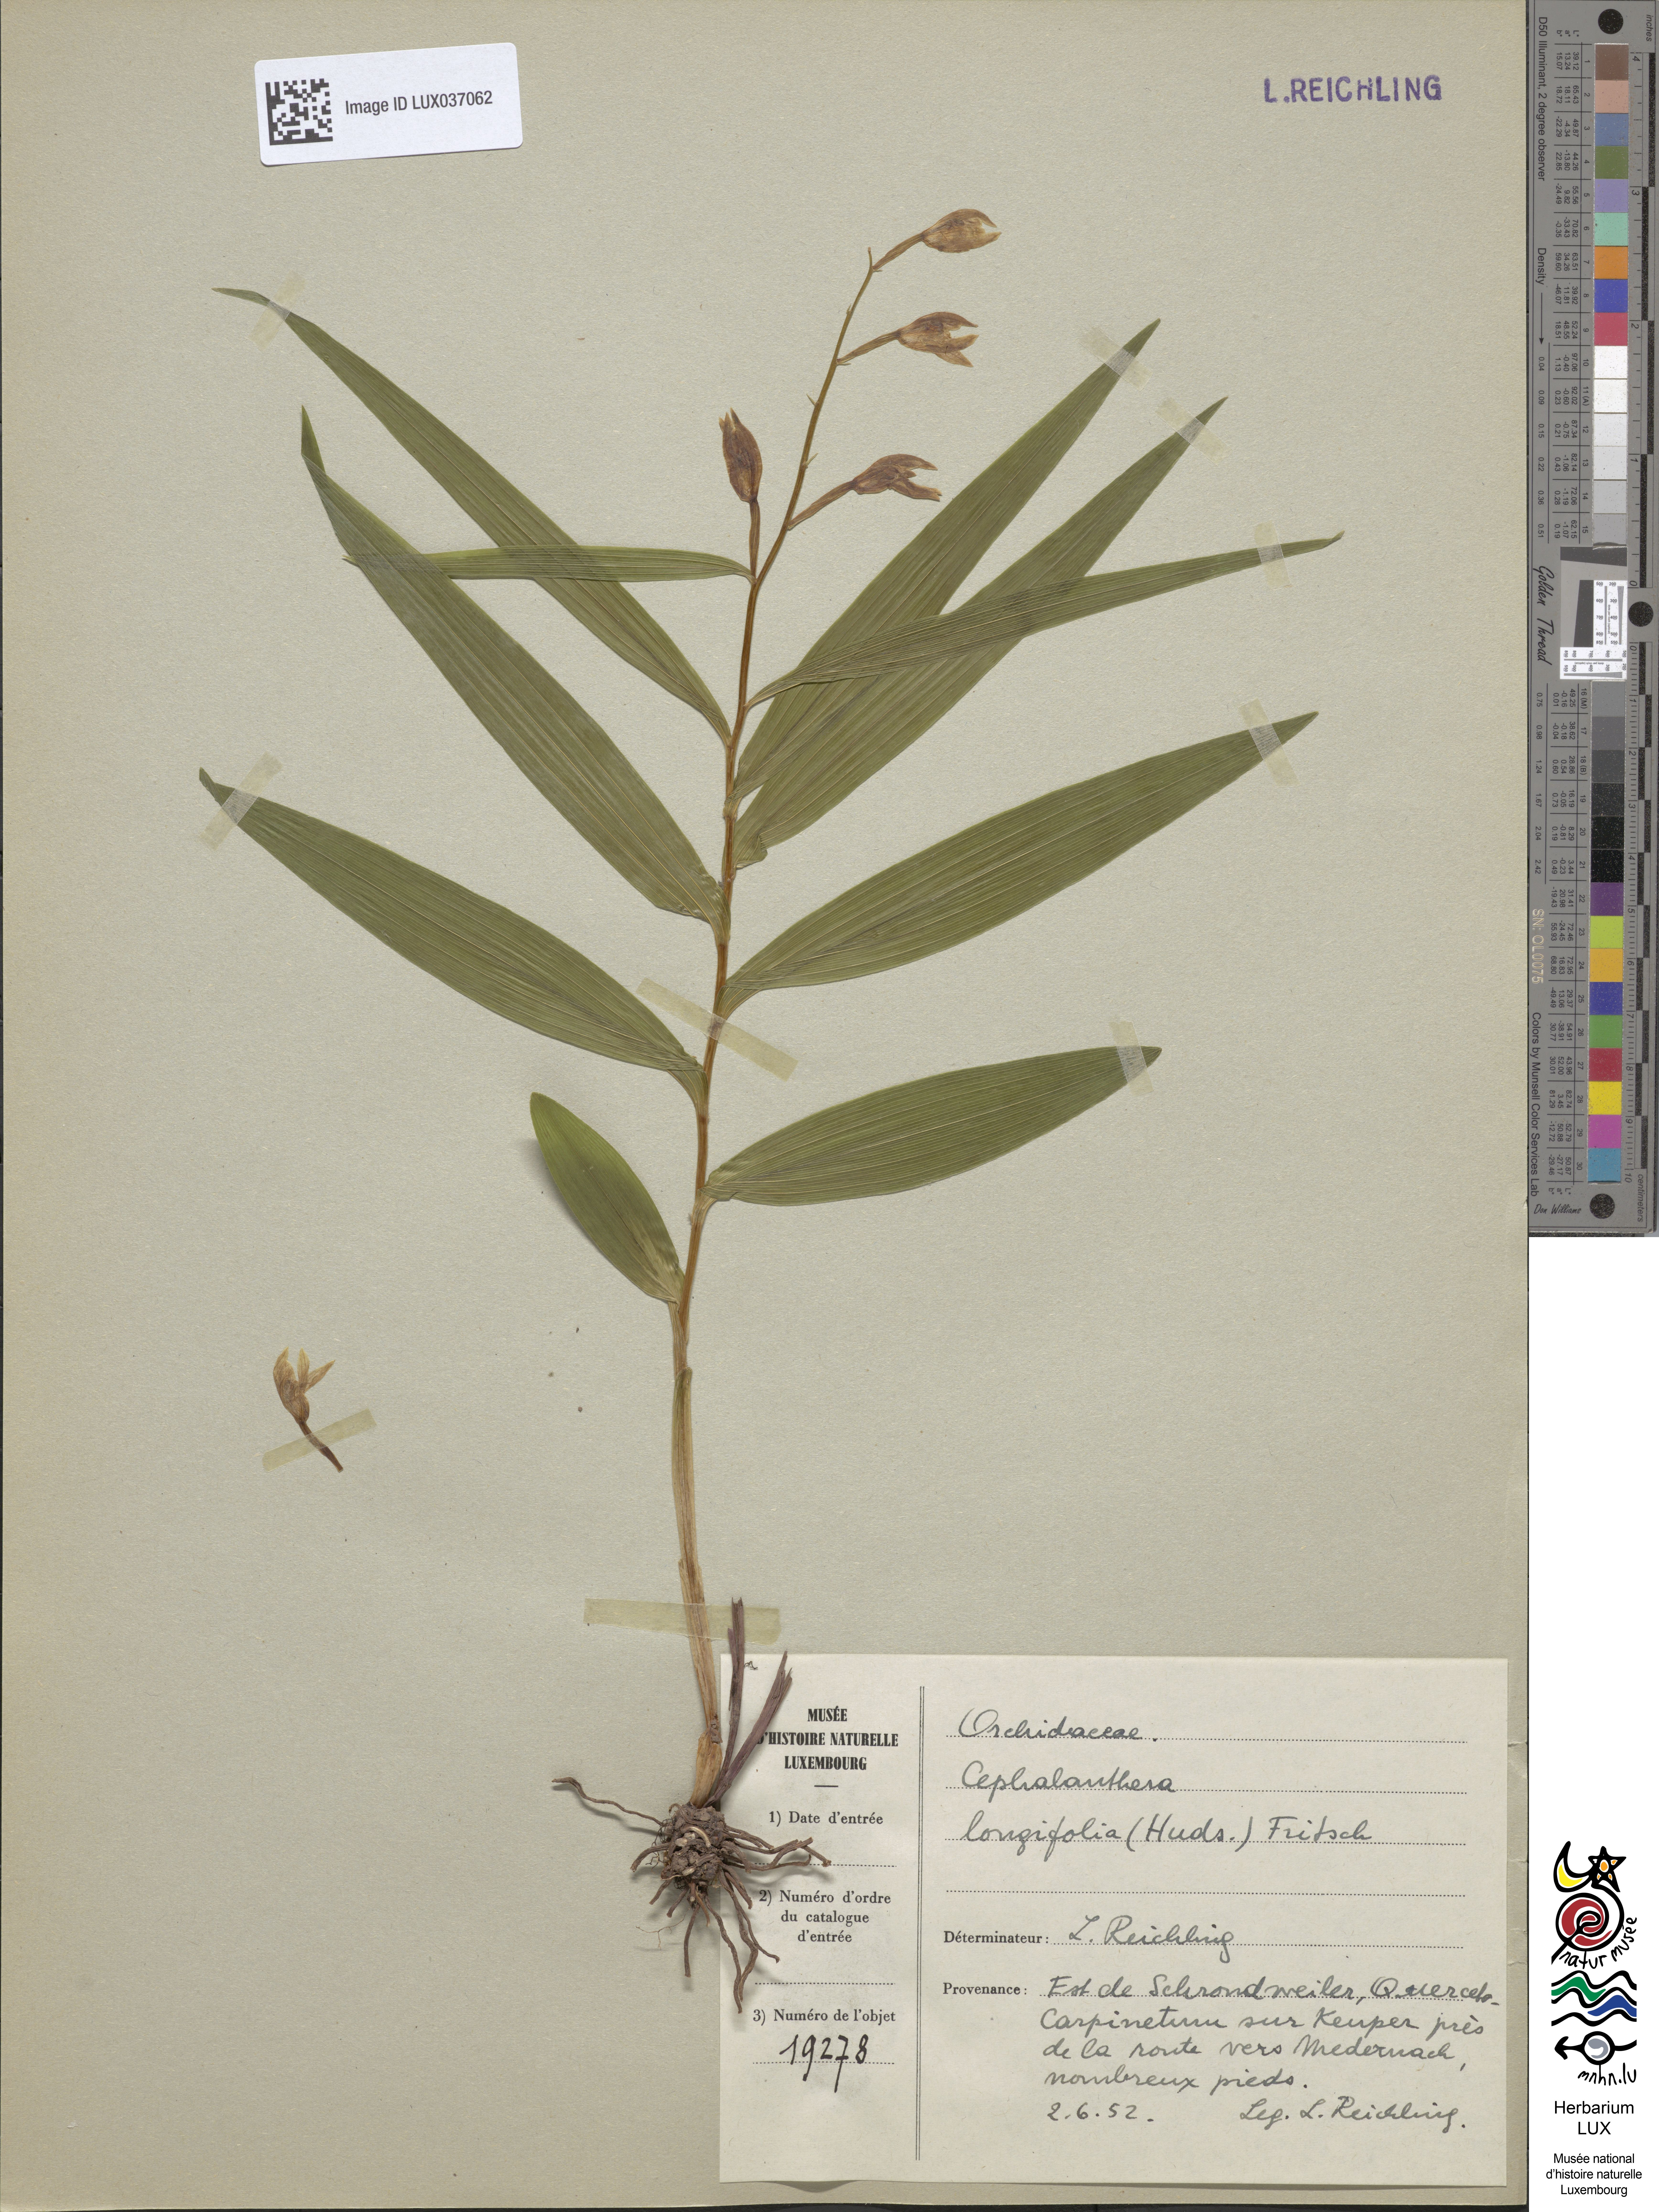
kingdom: Plantae
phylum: Tracheophyta
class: Liliopsida
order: Asparagales
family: Orchidaceae
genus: Cephalanthera
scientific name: Cephalanthera longifolia
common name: Narrow-leaved helleborine
